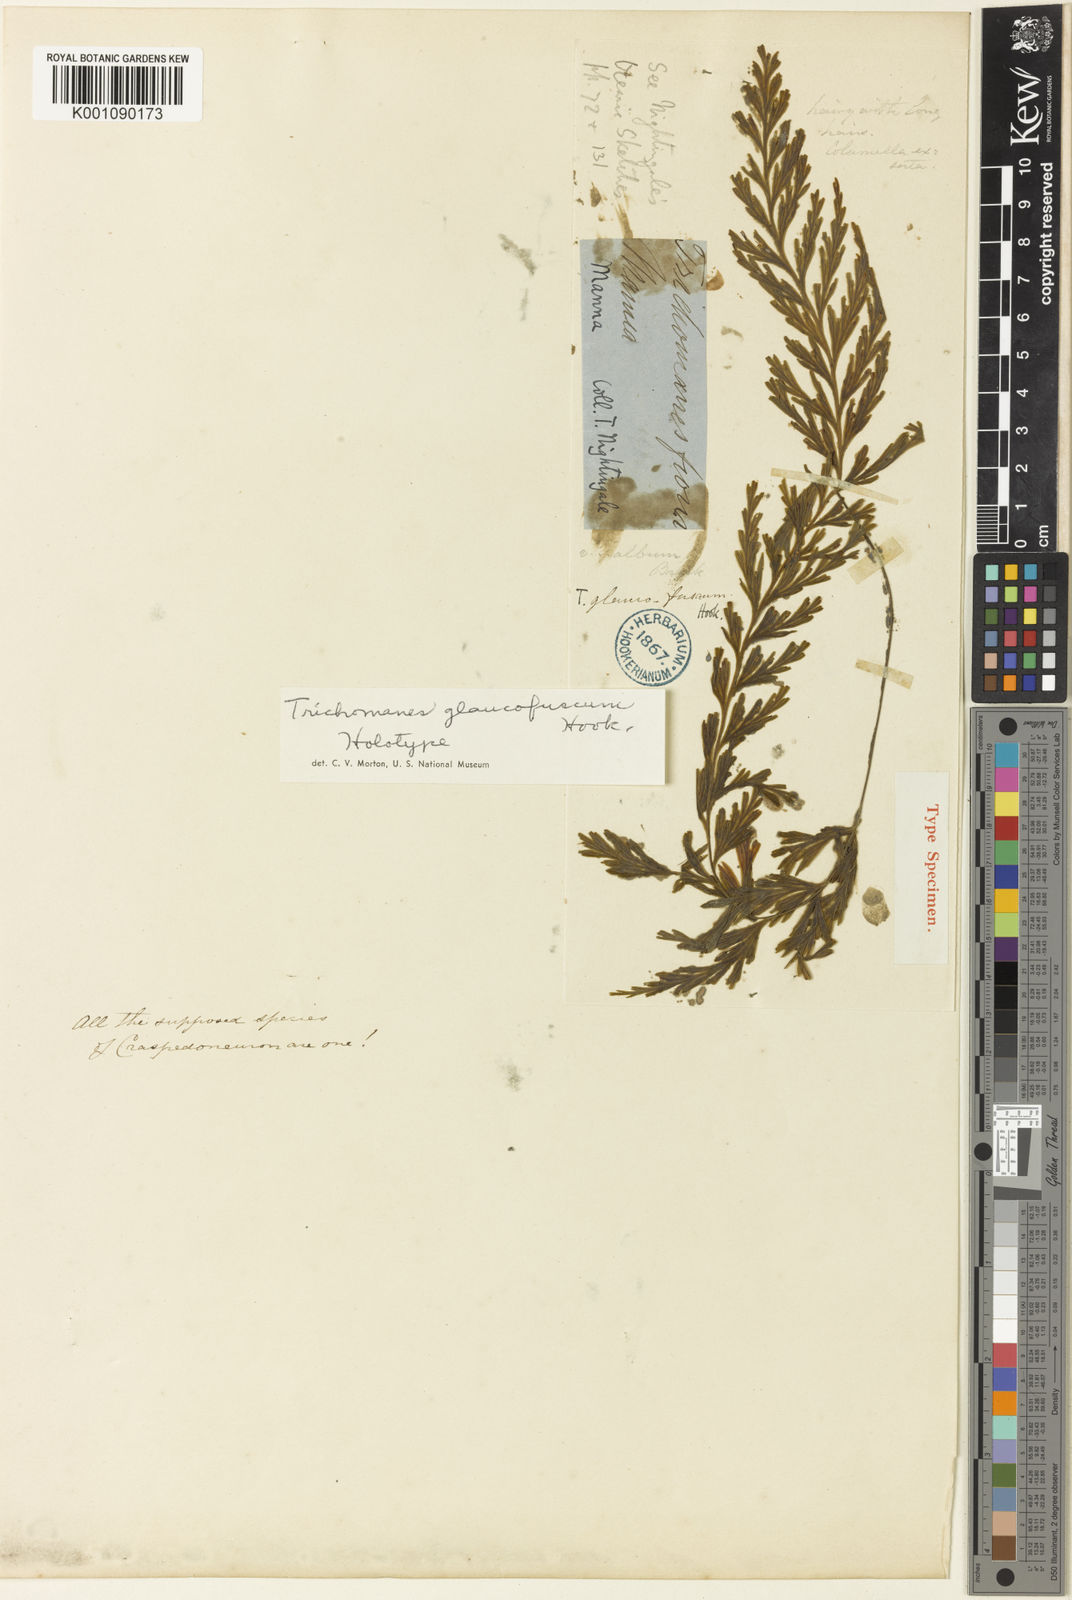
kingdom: Plantae
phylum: Tracheophyta
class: Polypodiopsida
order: Hymenophyllales
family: Hymenophyllaceae
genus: Hymenophyllum
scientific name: Hymenophyllum pallidum
